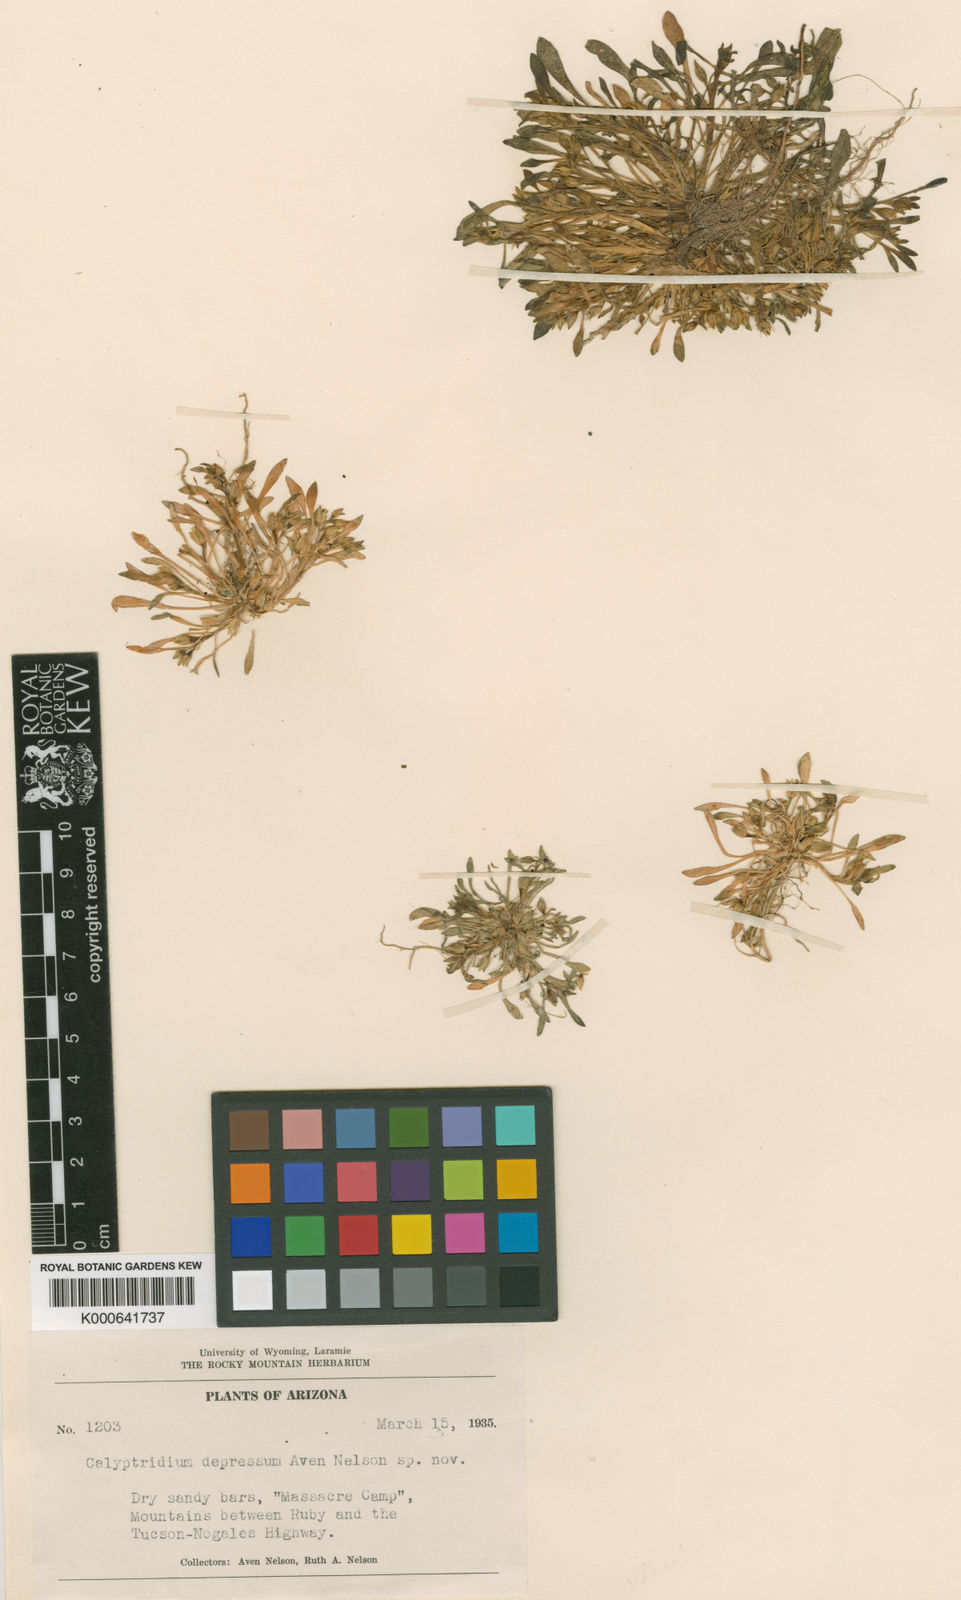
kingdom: Plantae
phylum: Tracheophyta
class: Magnoliopsida
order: Caryophyllales
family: Montiaceae
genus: Calandrinia
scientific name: Calandrinia ciliata
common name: Red-maids
